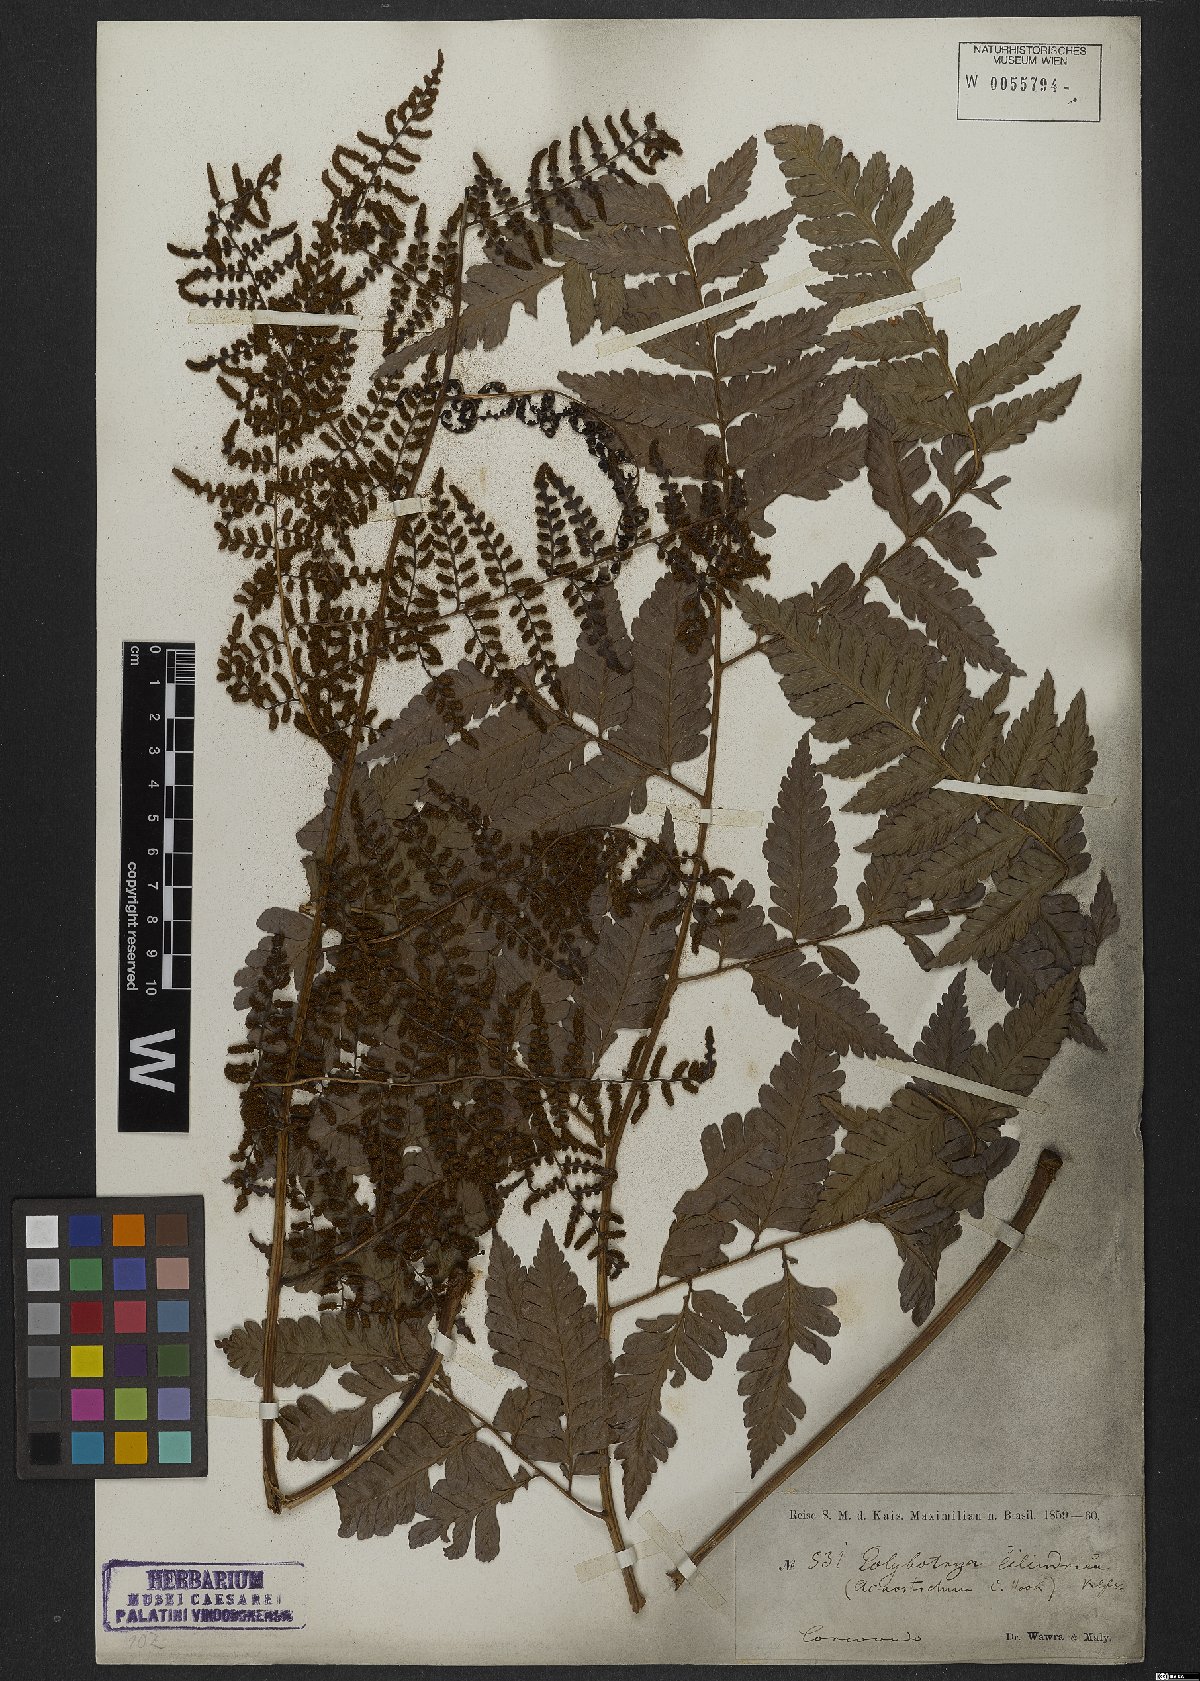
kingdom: Plantae
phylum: Tracheophyta
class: Polypodiopsida
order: Polypodiales
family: Dryopteridaceae
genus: Polybotrya
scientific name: Polybotrya osmundacea
